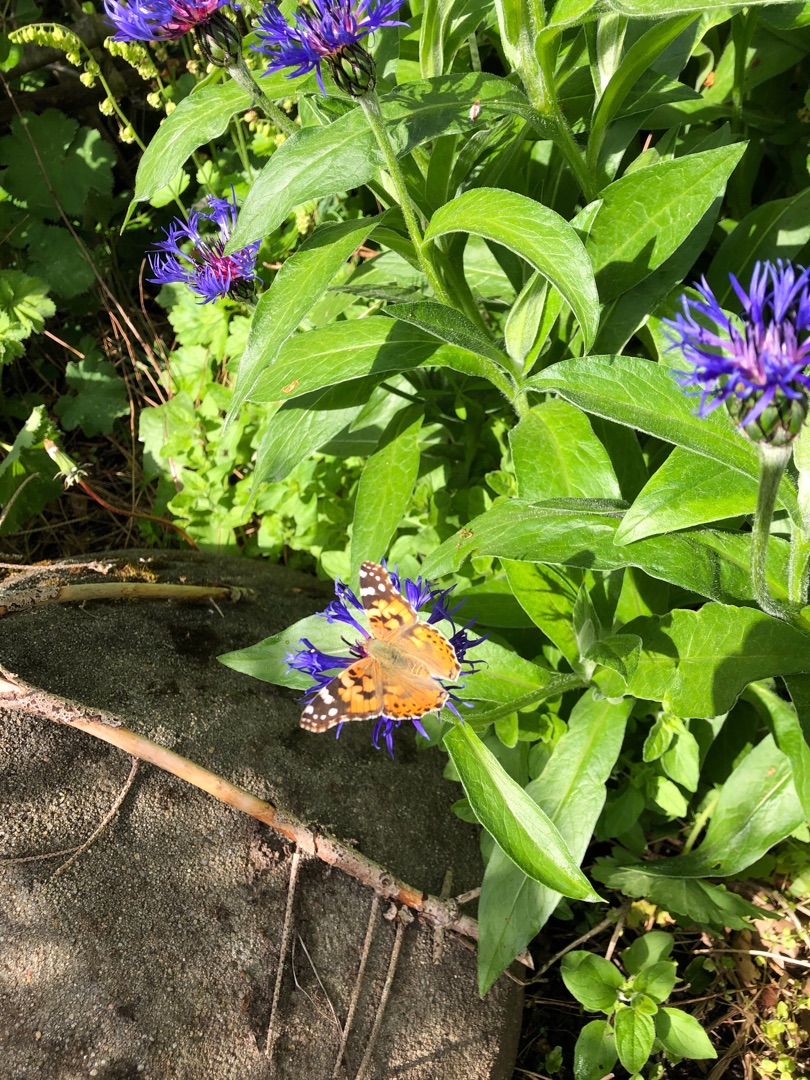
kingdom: Animalia
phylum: Arthropoda
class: Insecta
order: Lepidoptera
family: Nymphalidae
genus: Vanessa
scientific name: Vanessa cardui
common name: Tidselsommerfugl
